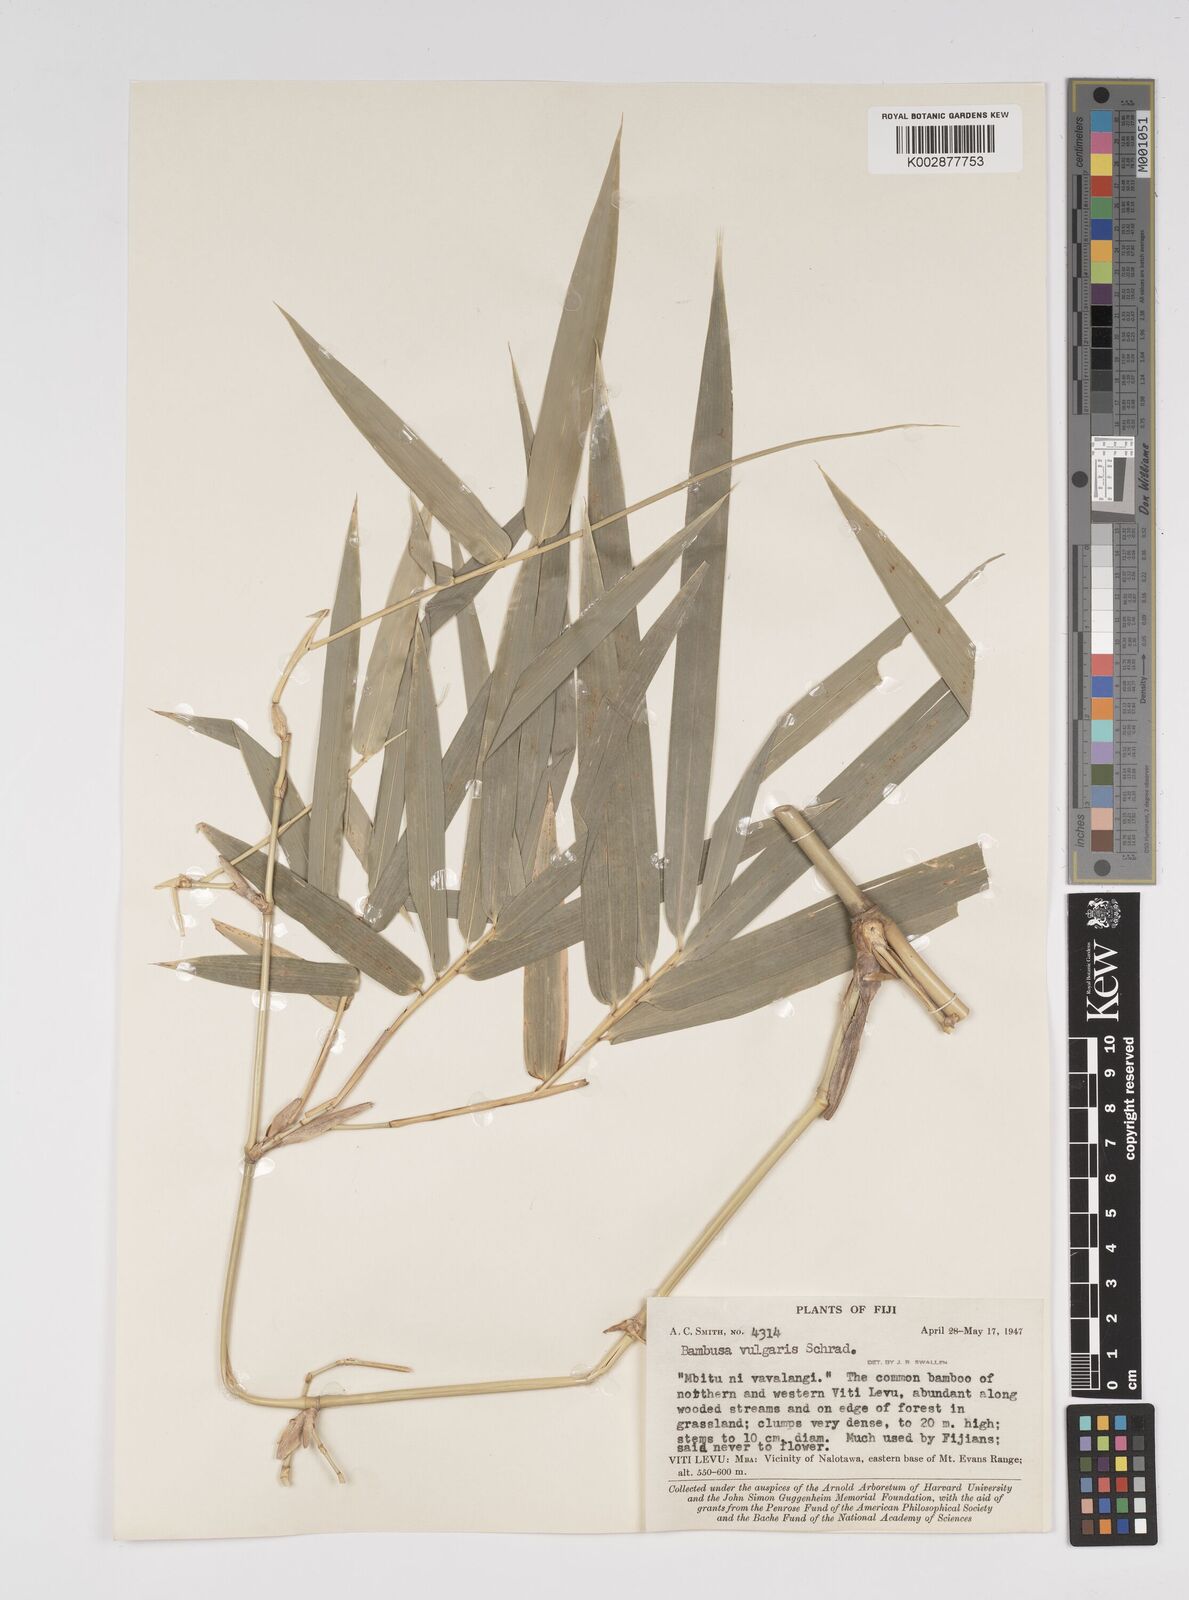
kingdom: Plantae
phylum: Tracheophyta
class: Liliopsida
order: Poales
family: Poaceae
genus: Bambusa
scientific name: Bambusa vulgaris
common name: Common bamboo
